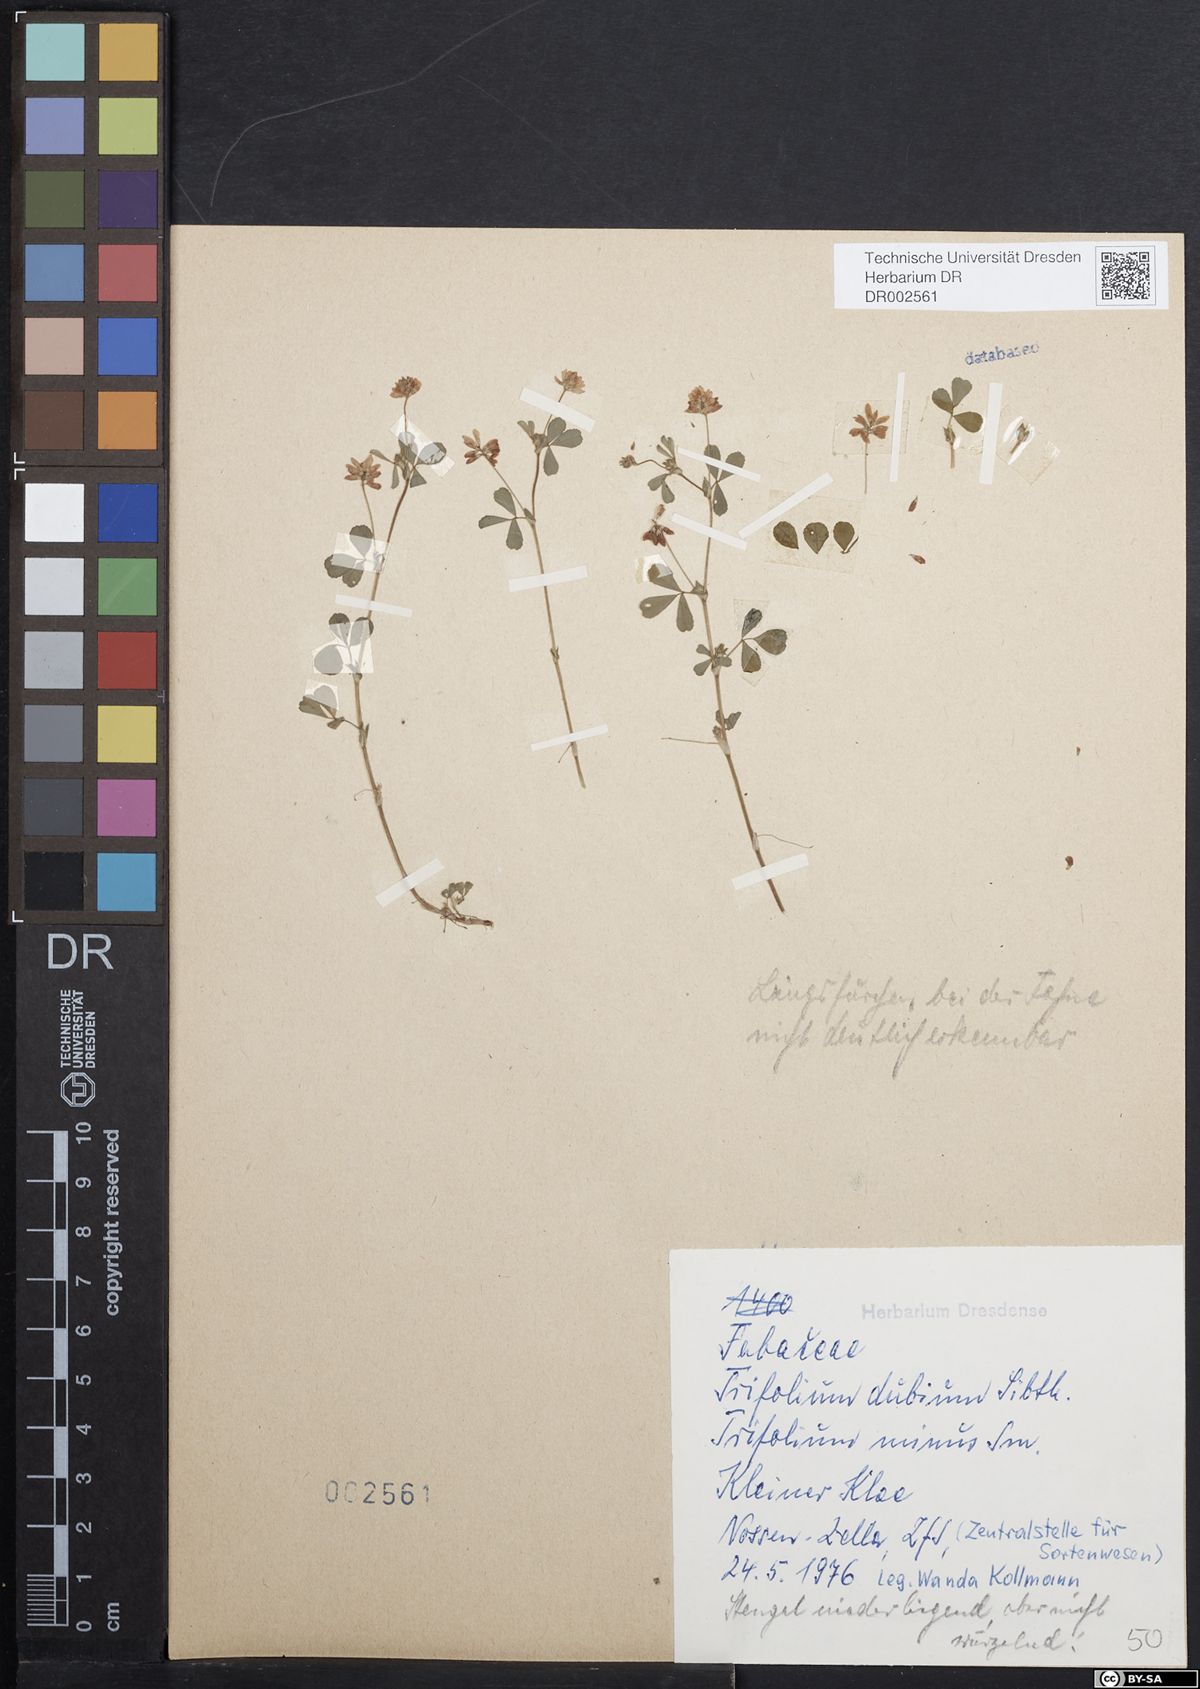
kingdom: Plantae
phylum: Tracheophyta
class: Magnoliopsida
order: Fabales
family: Fabaceae
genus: Trifolium
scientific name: Trifolium dubium
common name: Suckling clover
